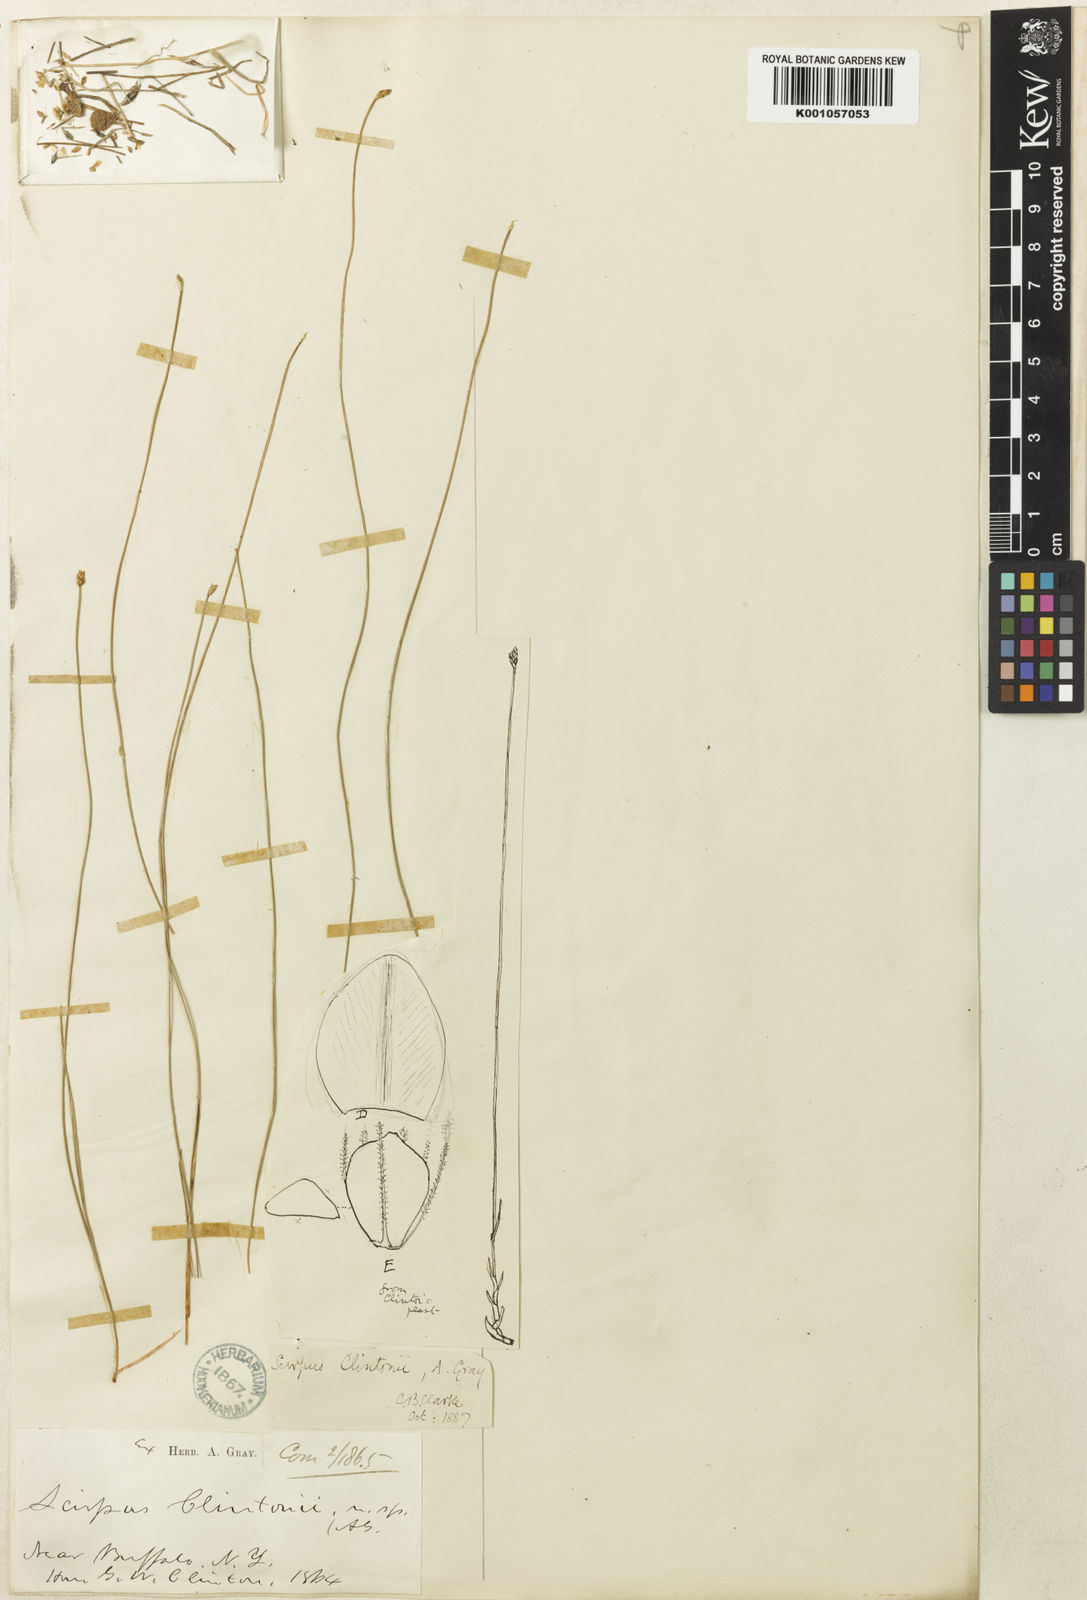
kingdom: Plantae
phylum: Tracheophyta
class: Liliopsida
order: Poales
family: Cyperaceae
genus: Trichophorum
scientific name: Trichophorum clintonii
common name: Clinton's bulrush
